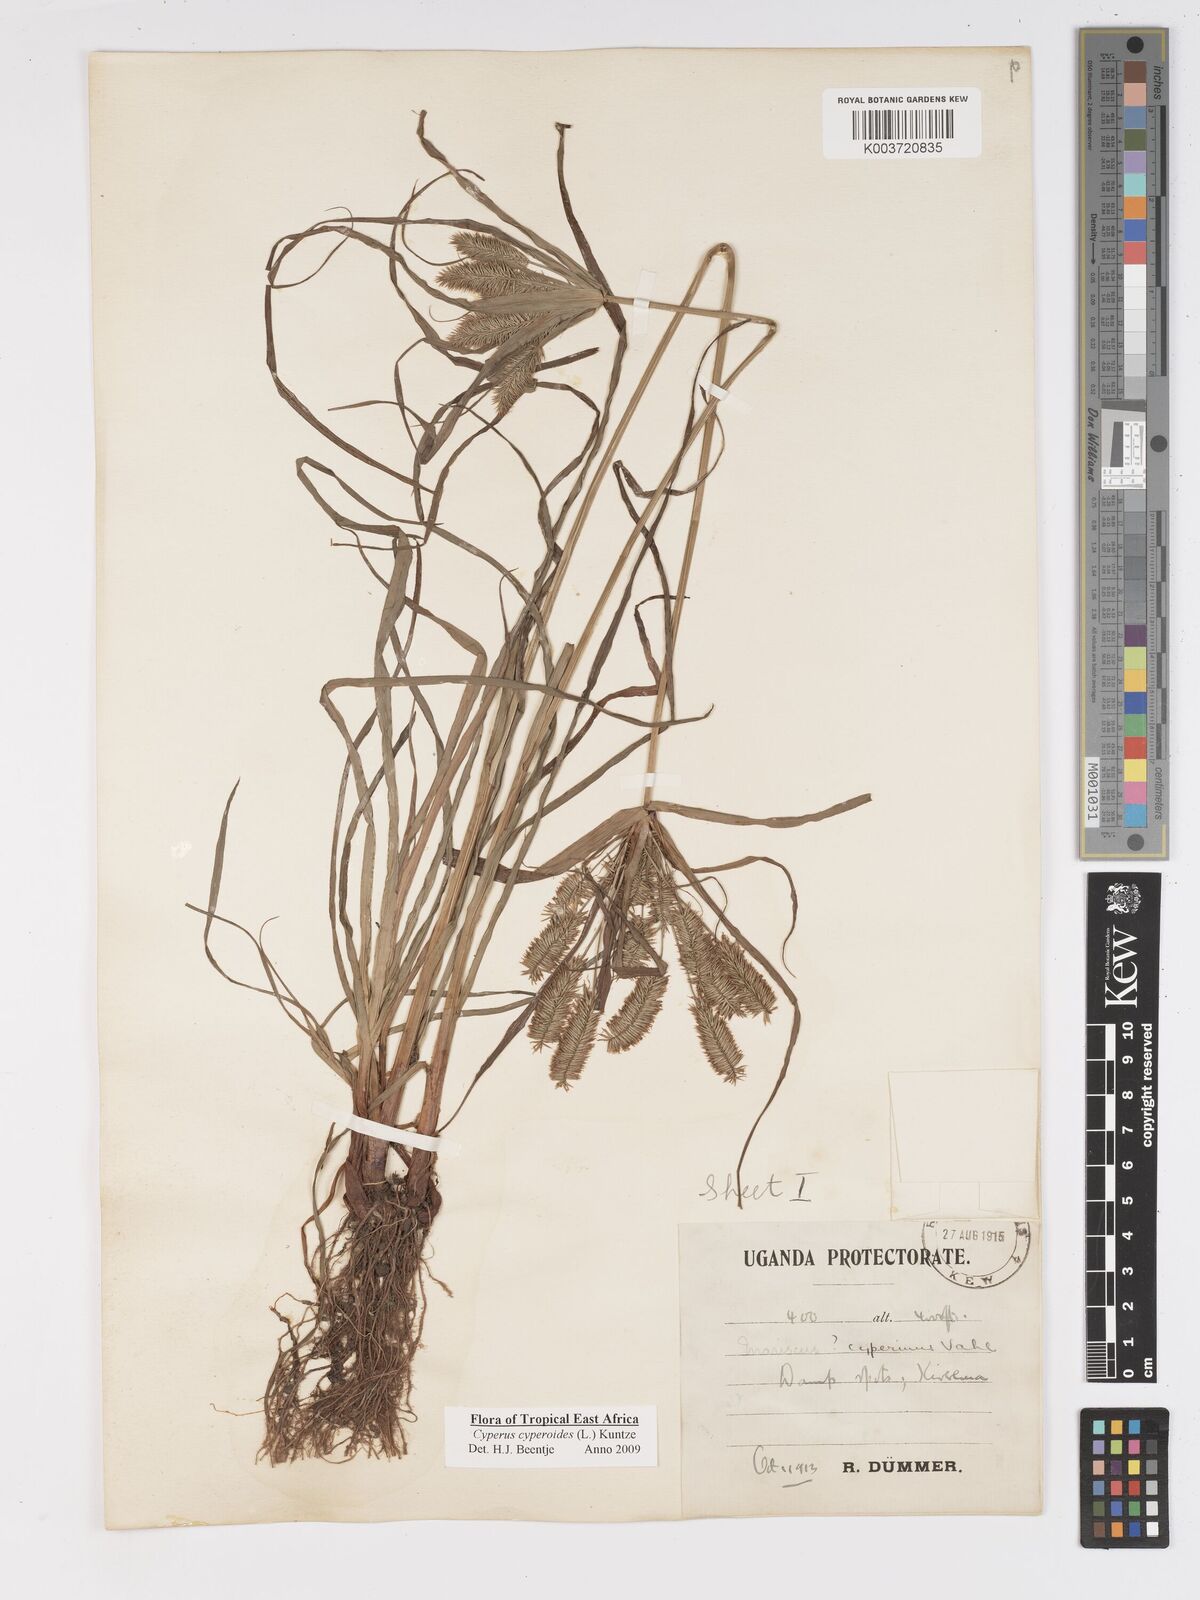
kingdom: Plantae
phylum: Tracheophyta
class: Liliopsida
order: Poales
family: Cyperaceae
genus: Cyperus
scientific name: Cyperus cyperoides
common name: Pacific island flat sedge
